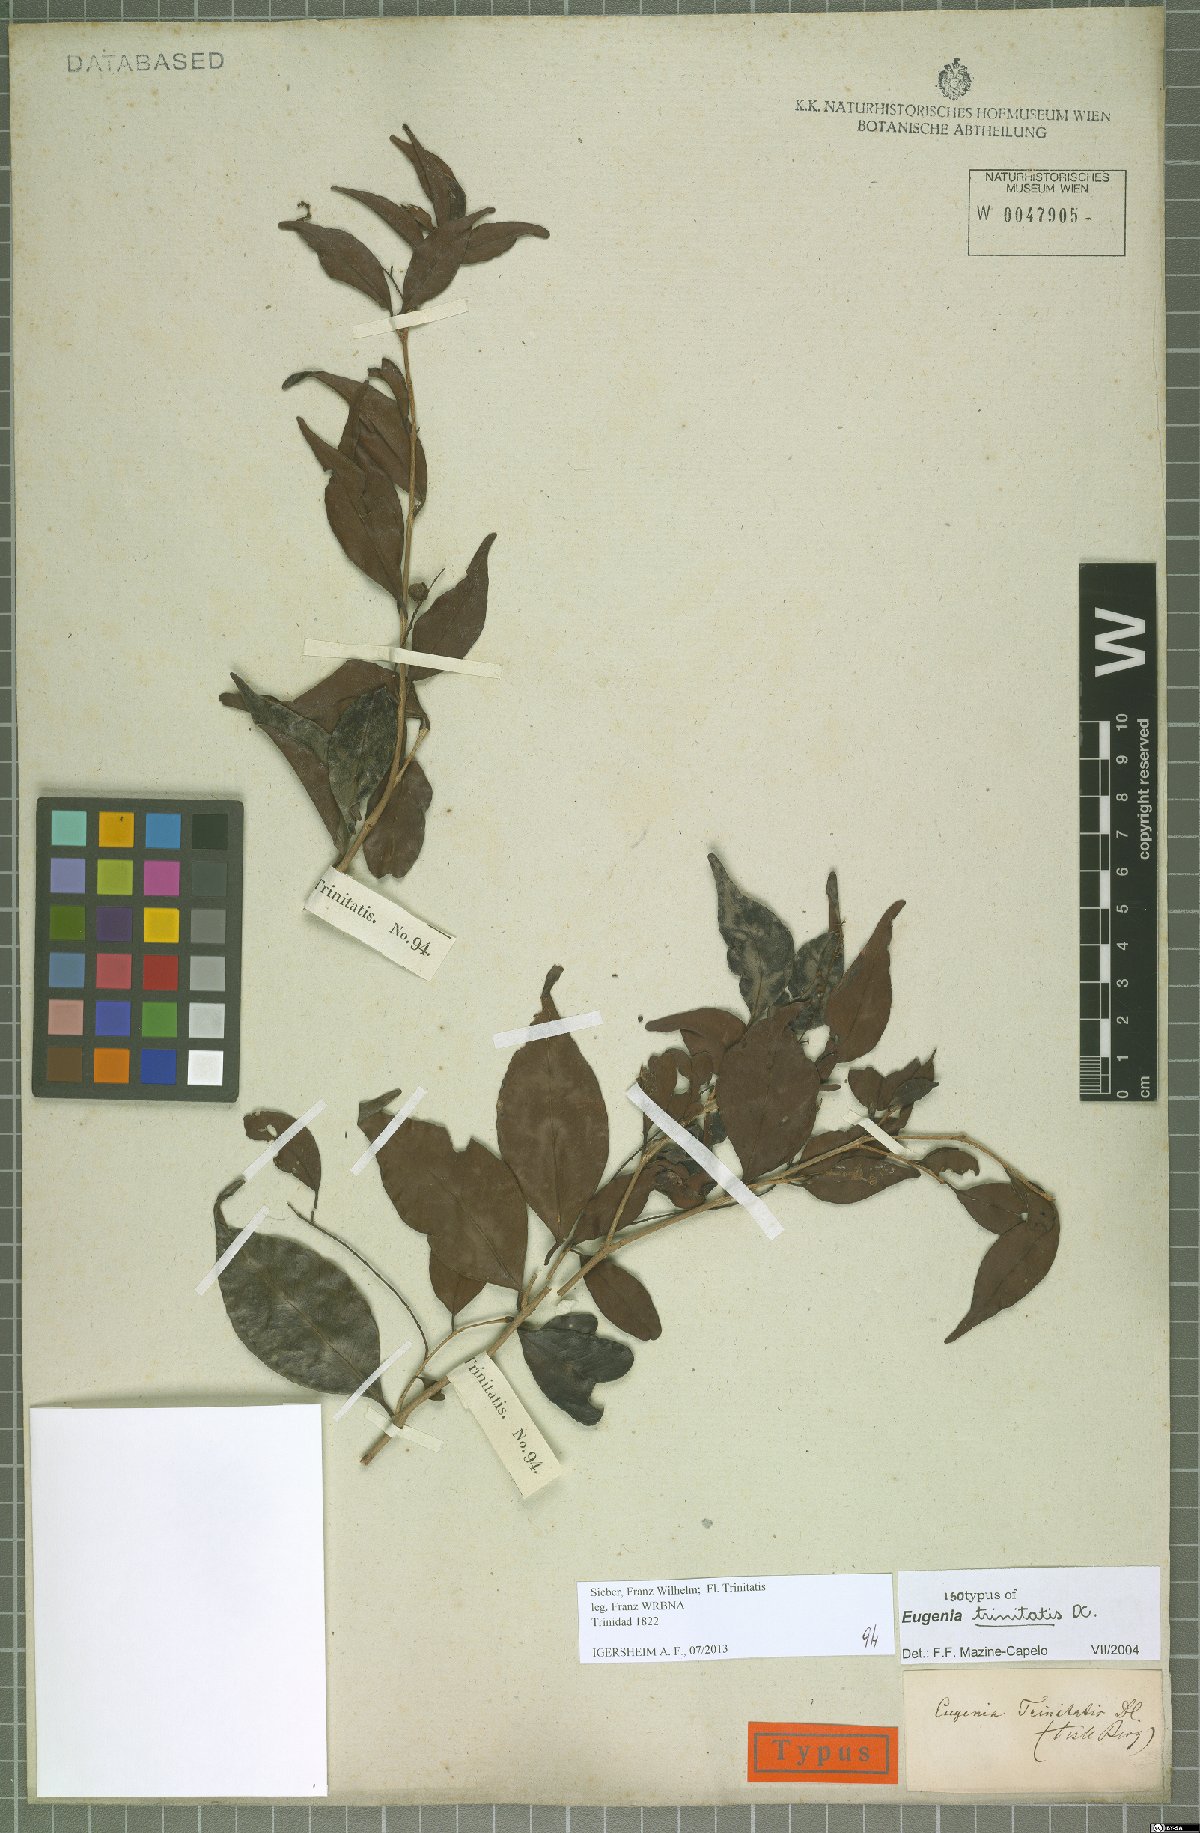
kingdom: Plantae
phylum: Tracheophyta
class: Magnoliopsida
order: Myrtales
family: Myrtaceae
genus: Eugenia
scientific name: Eugenia trinitatis
